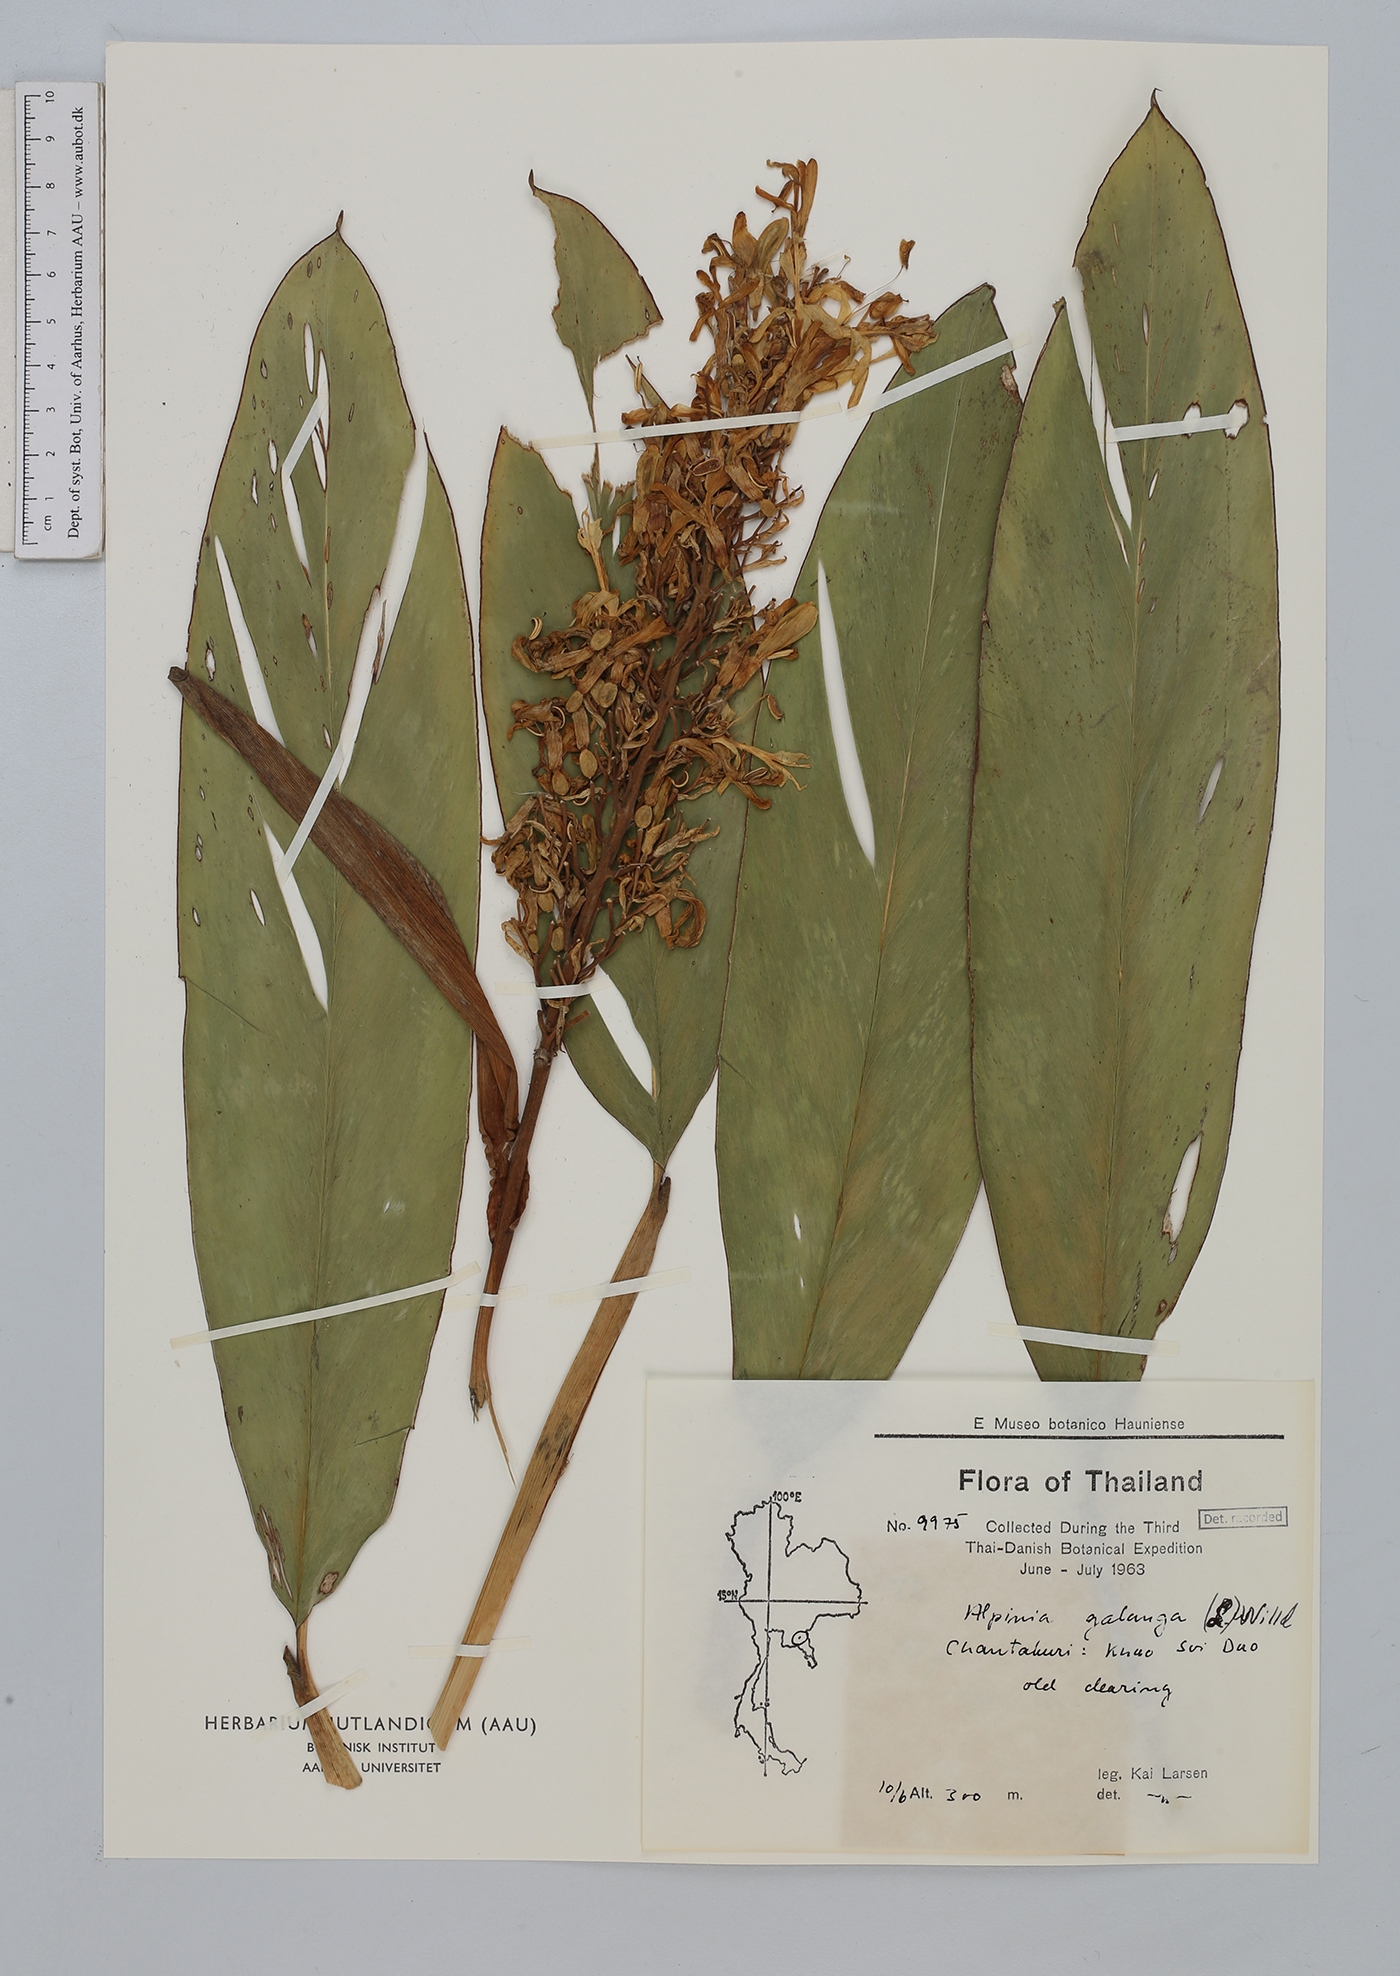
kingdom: Plantae
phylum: Tracheophyta
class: Liliopsida
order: Zingiberales
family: Zingiberaceae
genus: Alpinia
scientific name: Alpinia galanga
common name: Siamese-ginger
